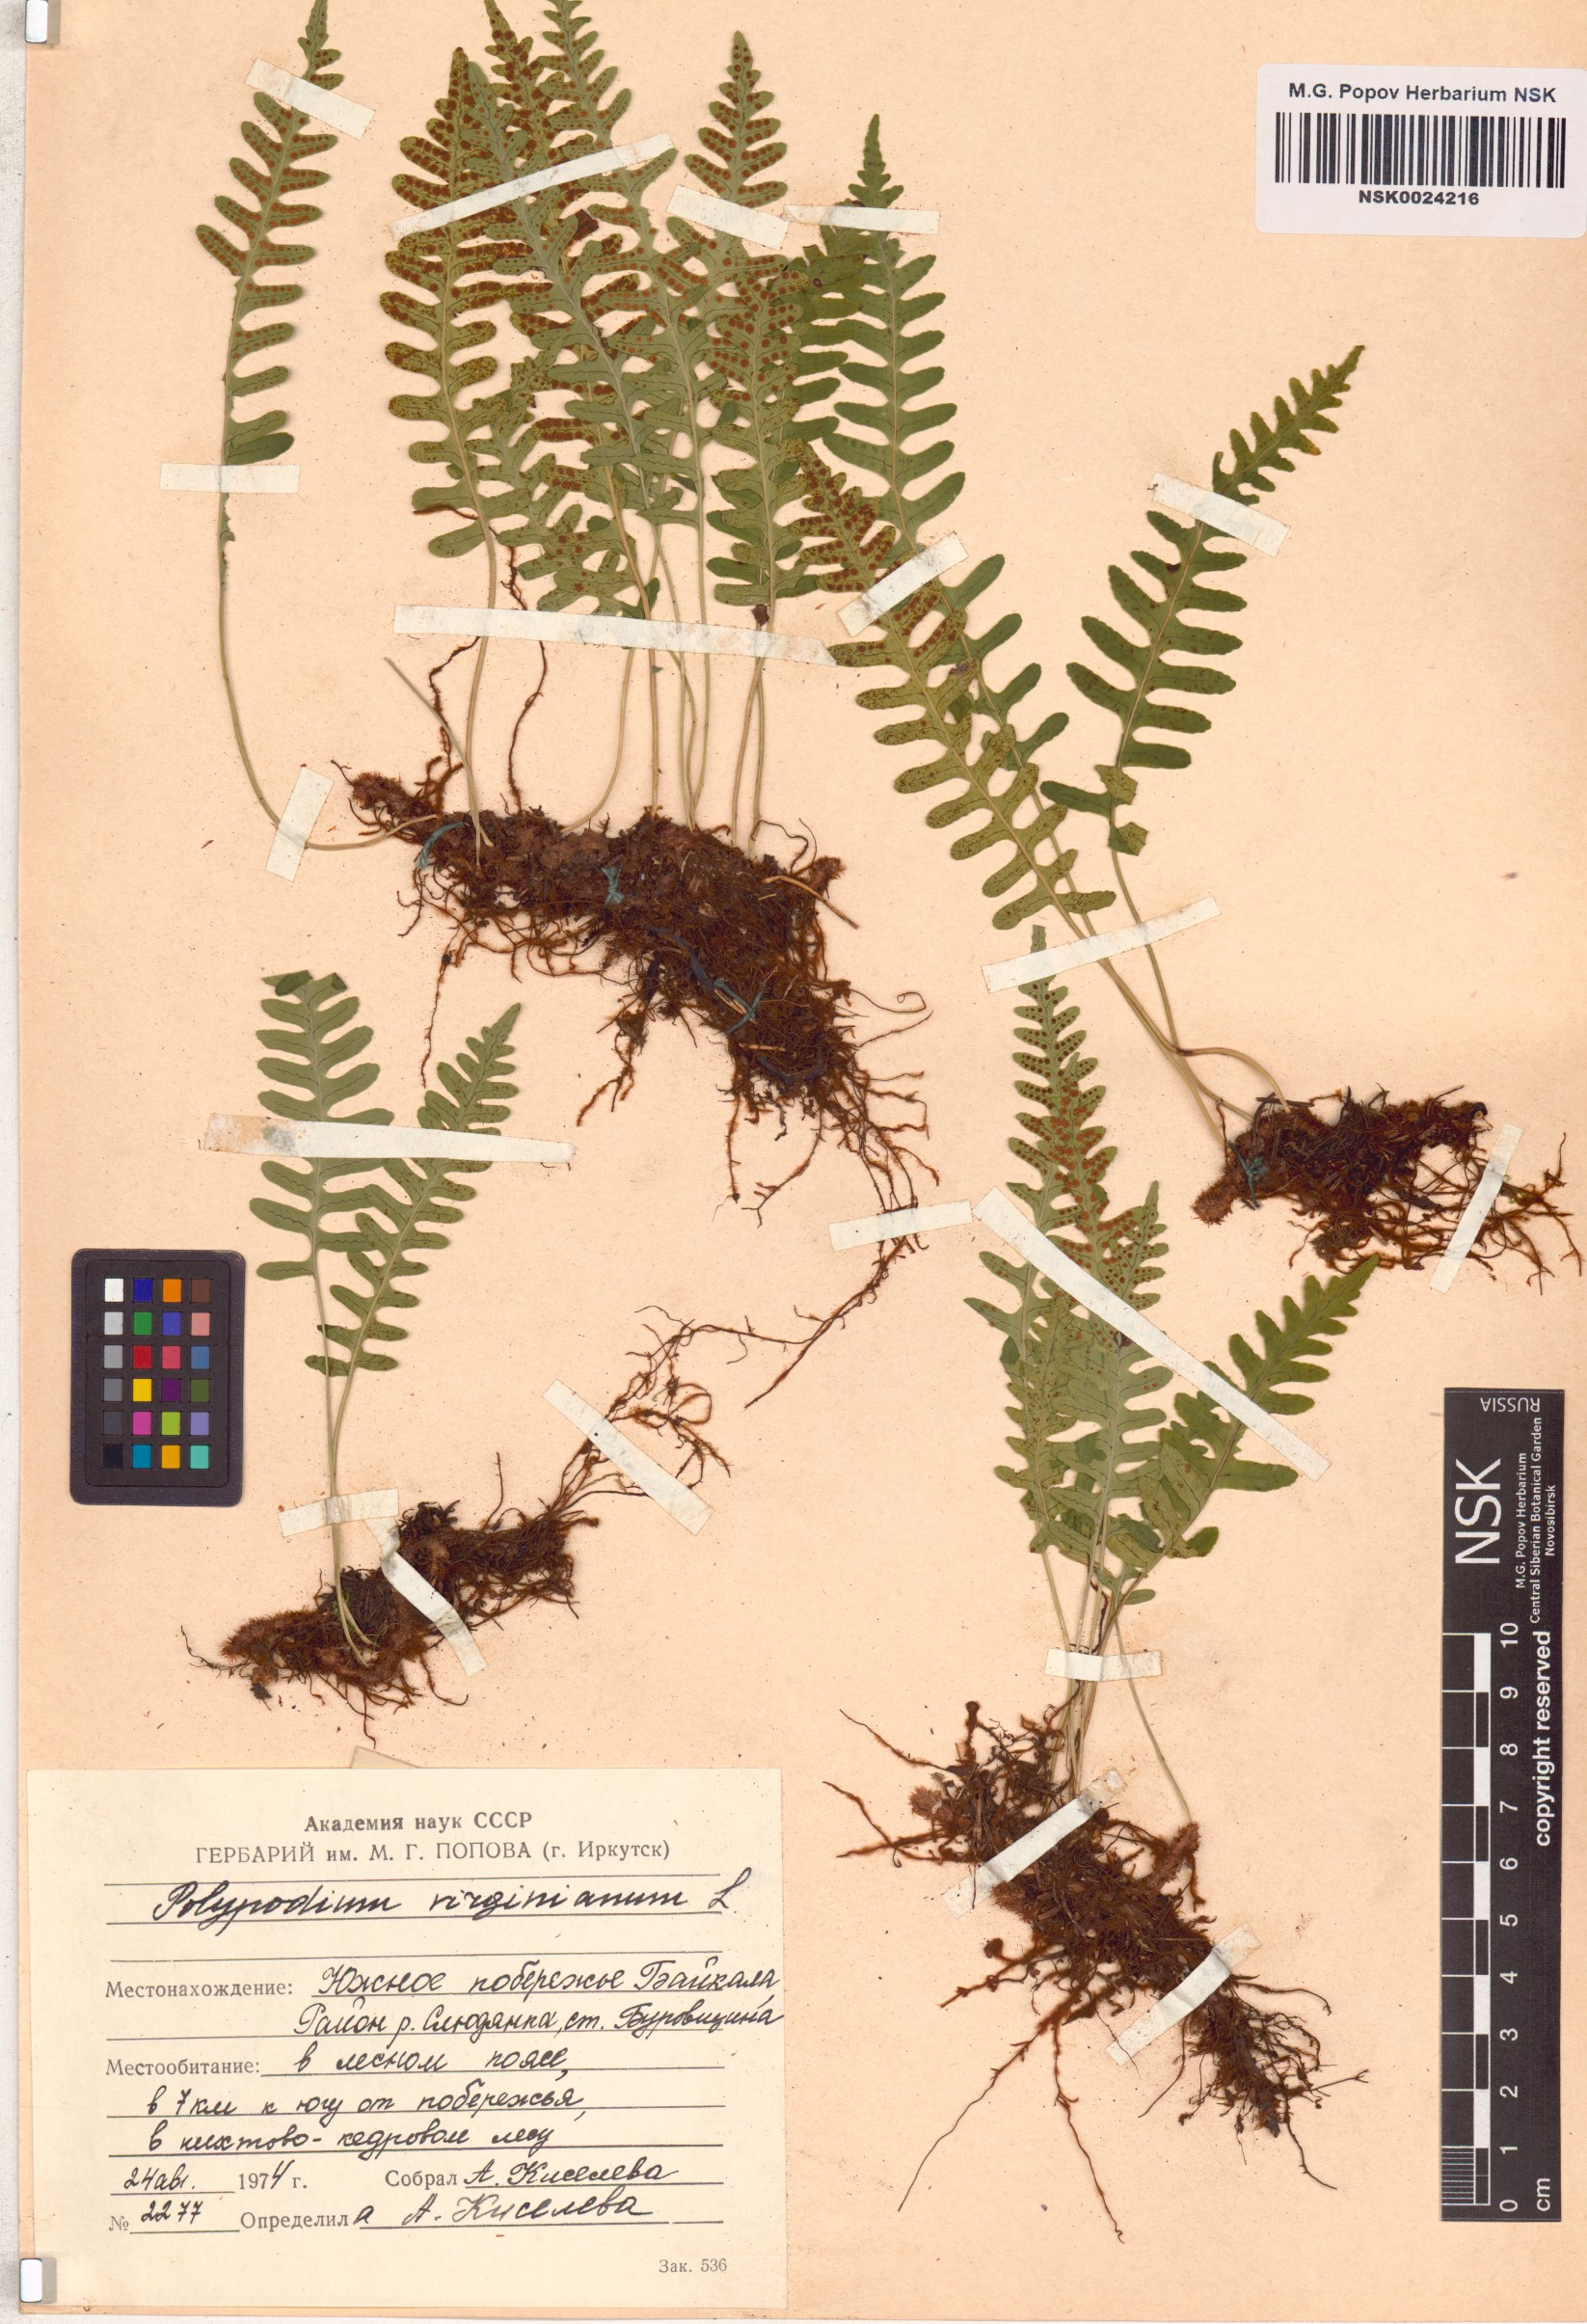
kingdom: Plantae
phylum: Tracheophyta
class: Polypodiopsida
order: Polypodiales
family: Polypodiaceae
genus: Polypodium
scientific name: Polypodium virginianum
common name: American wall fern
